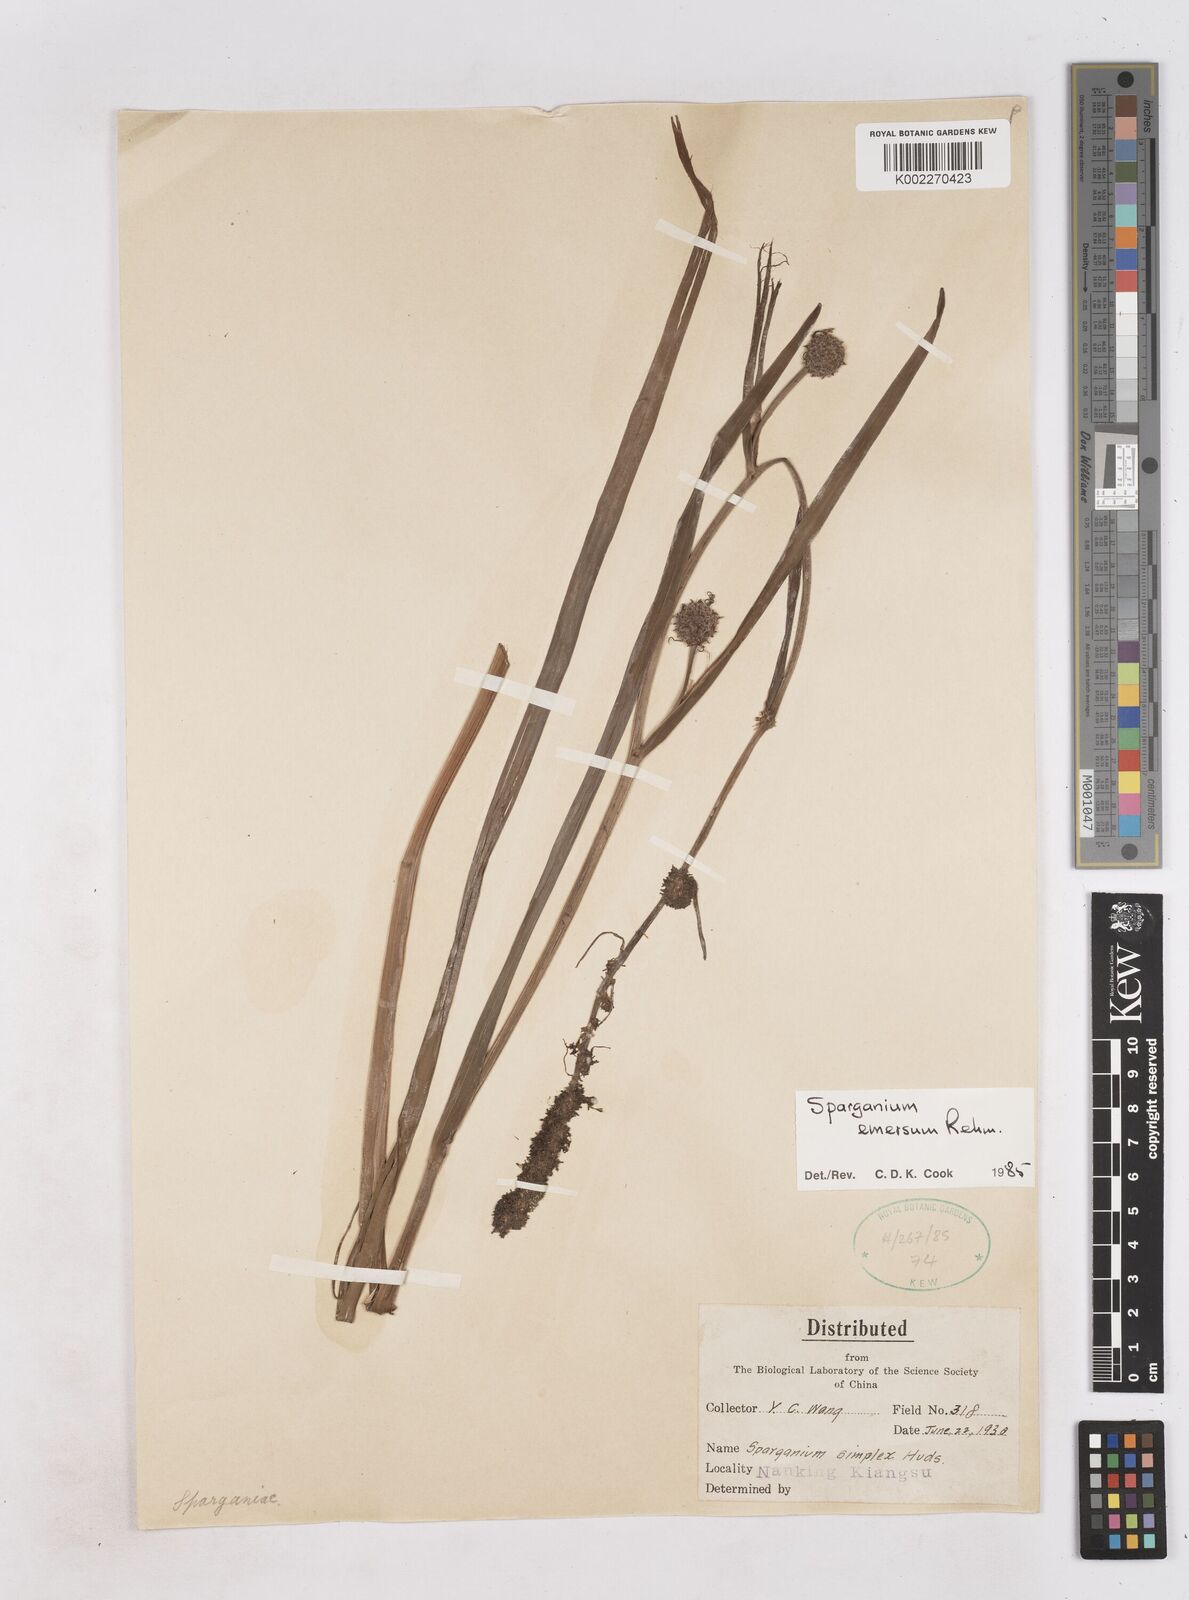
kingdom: Plantae
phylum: Tracheophyta
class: Liliopsida
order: Poales
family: Typhaceae
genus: Sparganium
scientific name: Sparganium emersum
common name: Unbranched bur-reed
